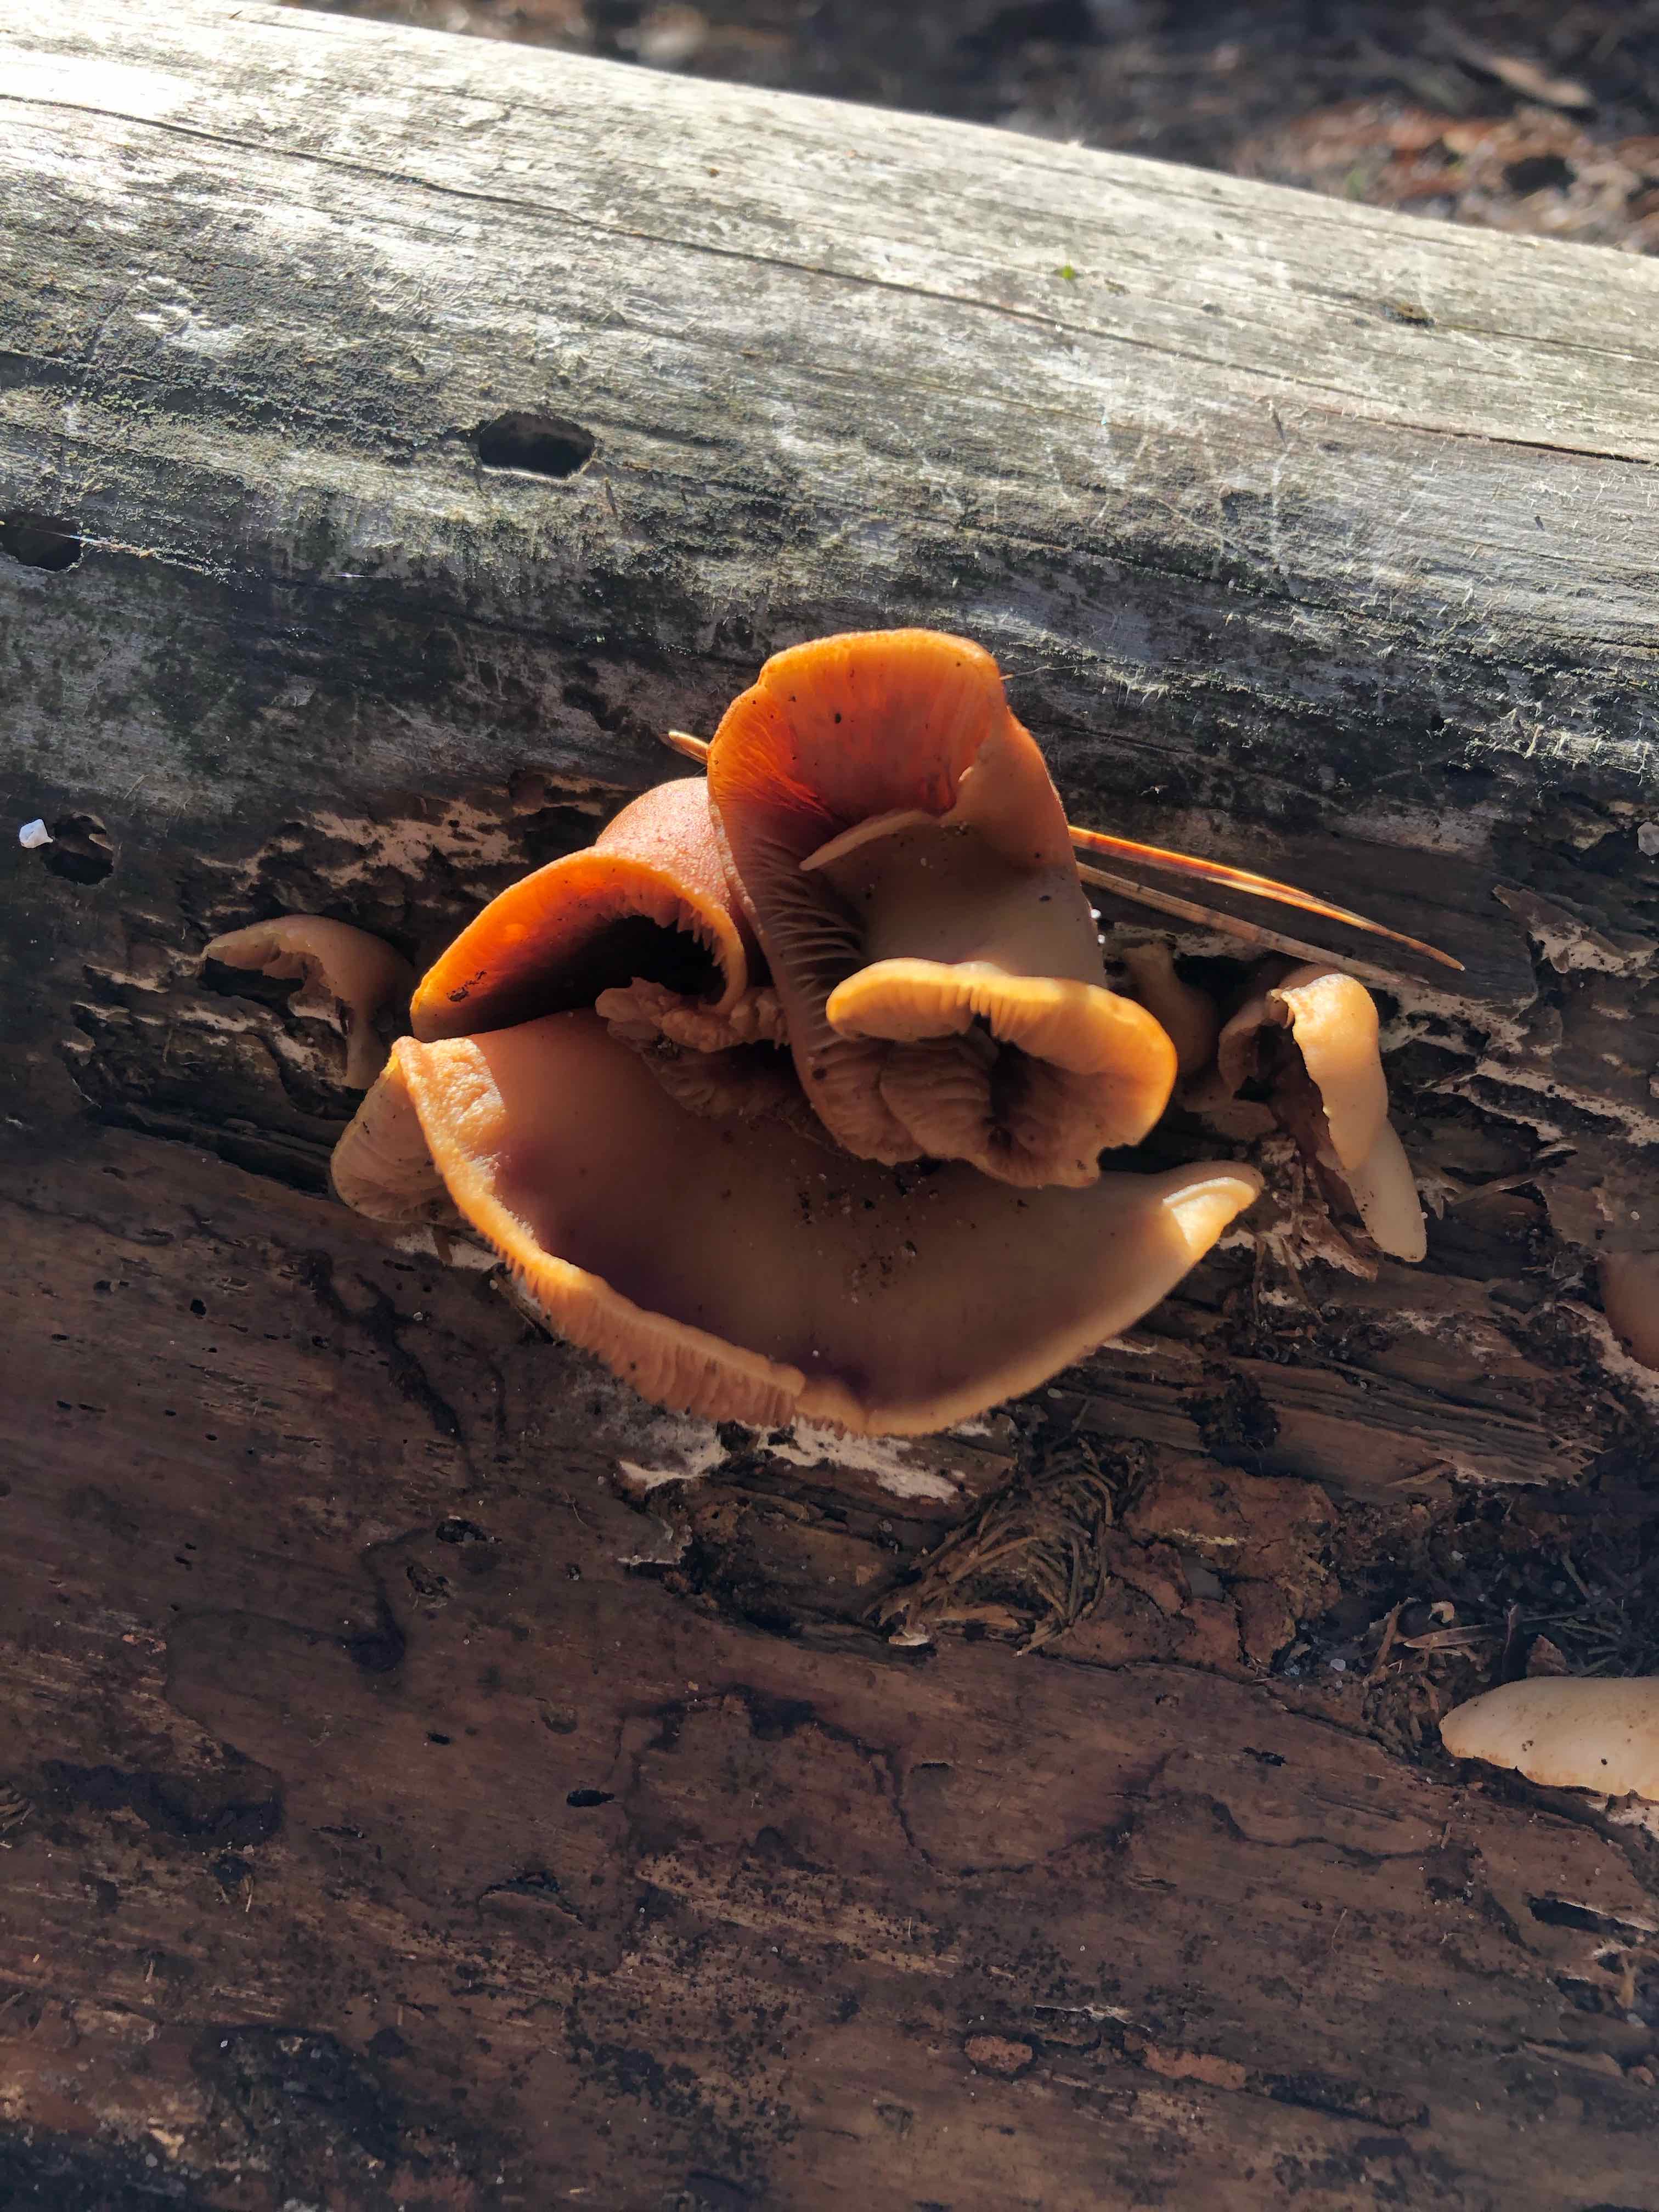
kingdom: Fungi
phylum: Basidiomycota
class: Agaricomycetes
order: Agaricales
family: Crepidotaceae
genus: Crepidotus
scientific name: Crepidotus
